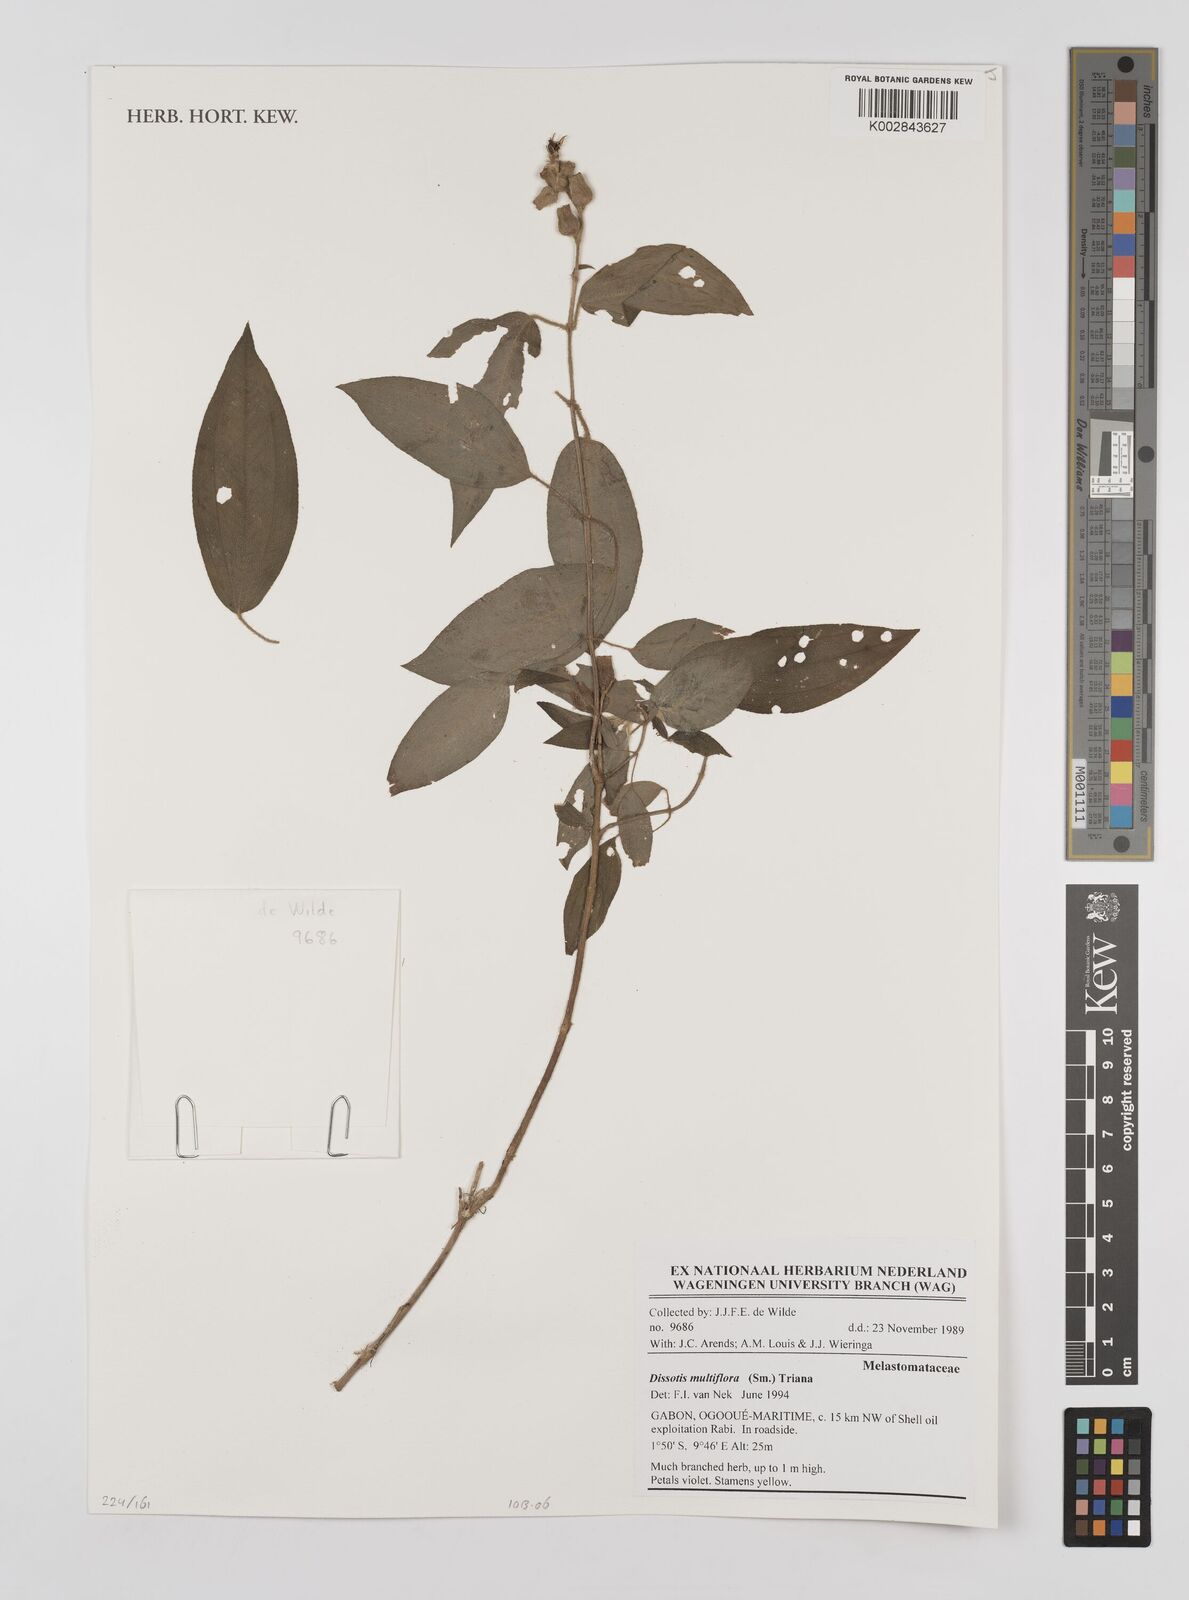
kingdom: Plantae
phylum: Tracheophyta
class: Magnoliopsida
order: Myrtales
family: Melastomataceae
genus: Dupineta
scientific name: Dupineta multiflora
